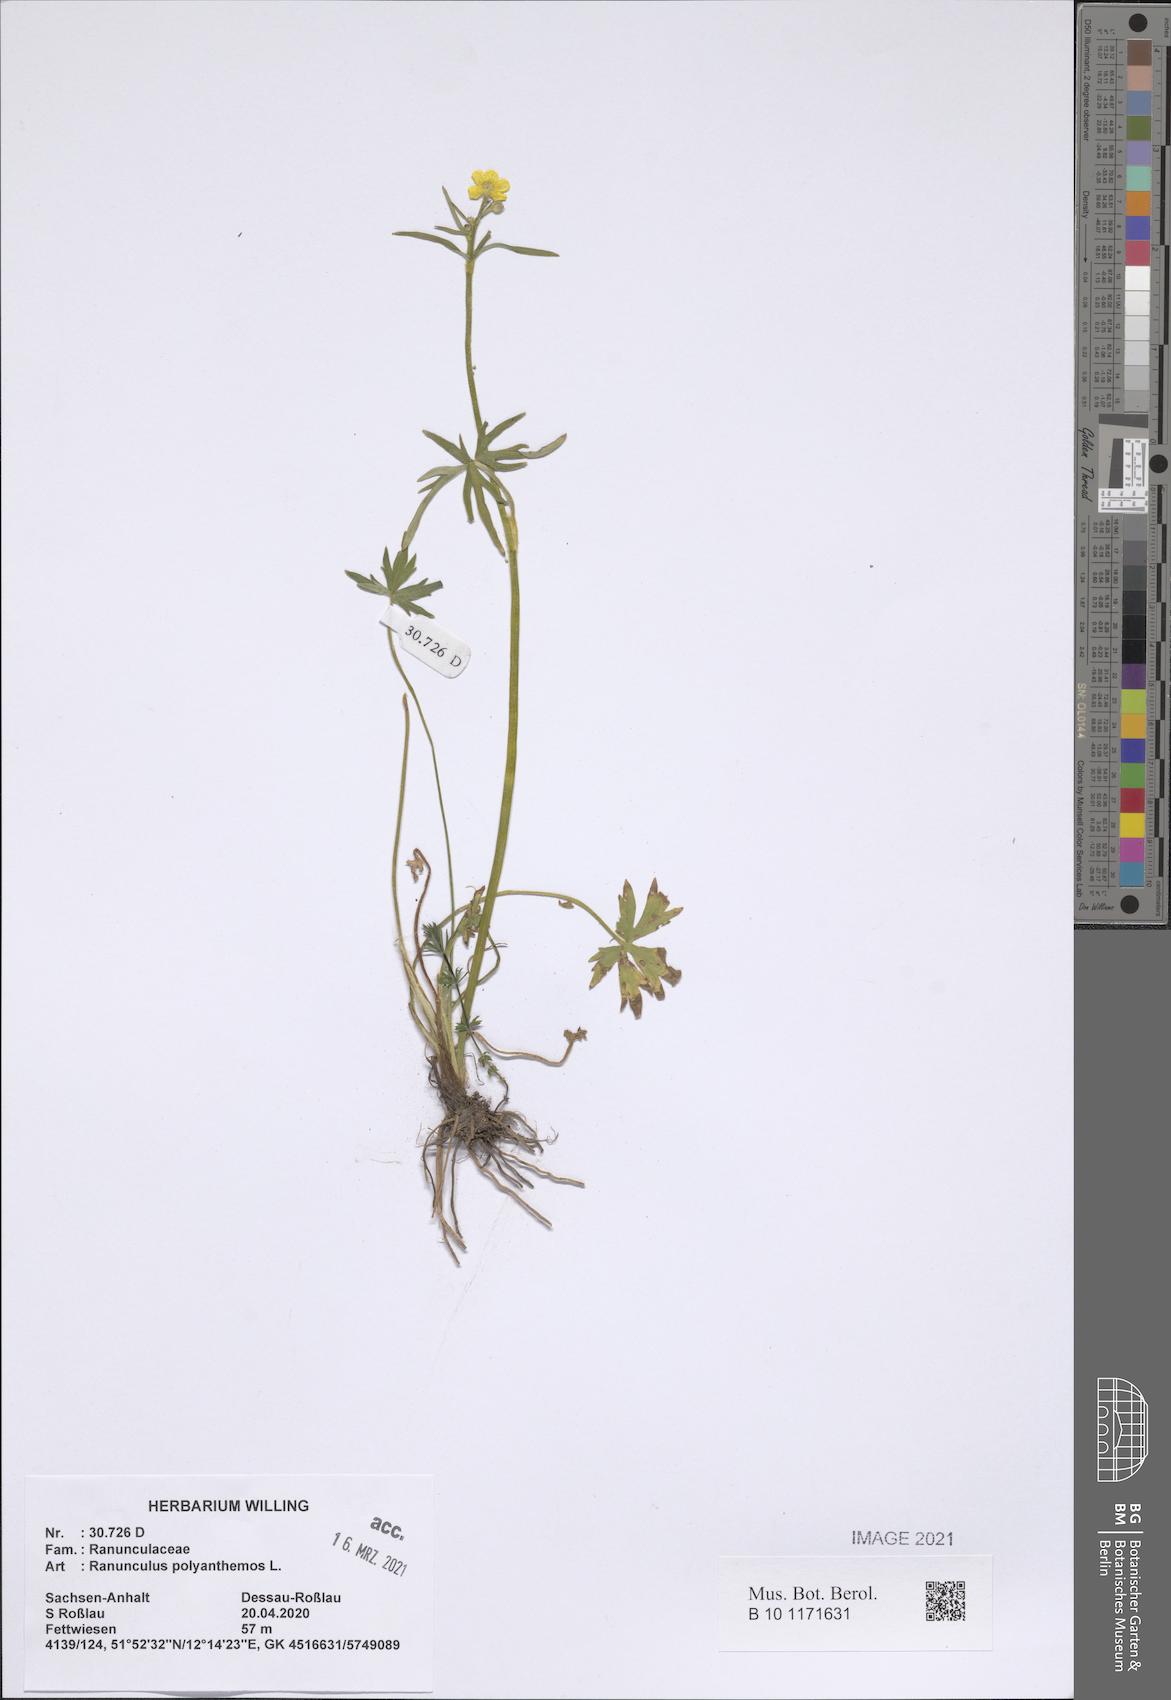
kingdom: Plantae
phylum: Tracheophyta
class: Magnoliopsida
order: Ranunculales
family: Ranunculaceae
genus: Ranunculus
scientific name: Ranunculus polyanthemos
